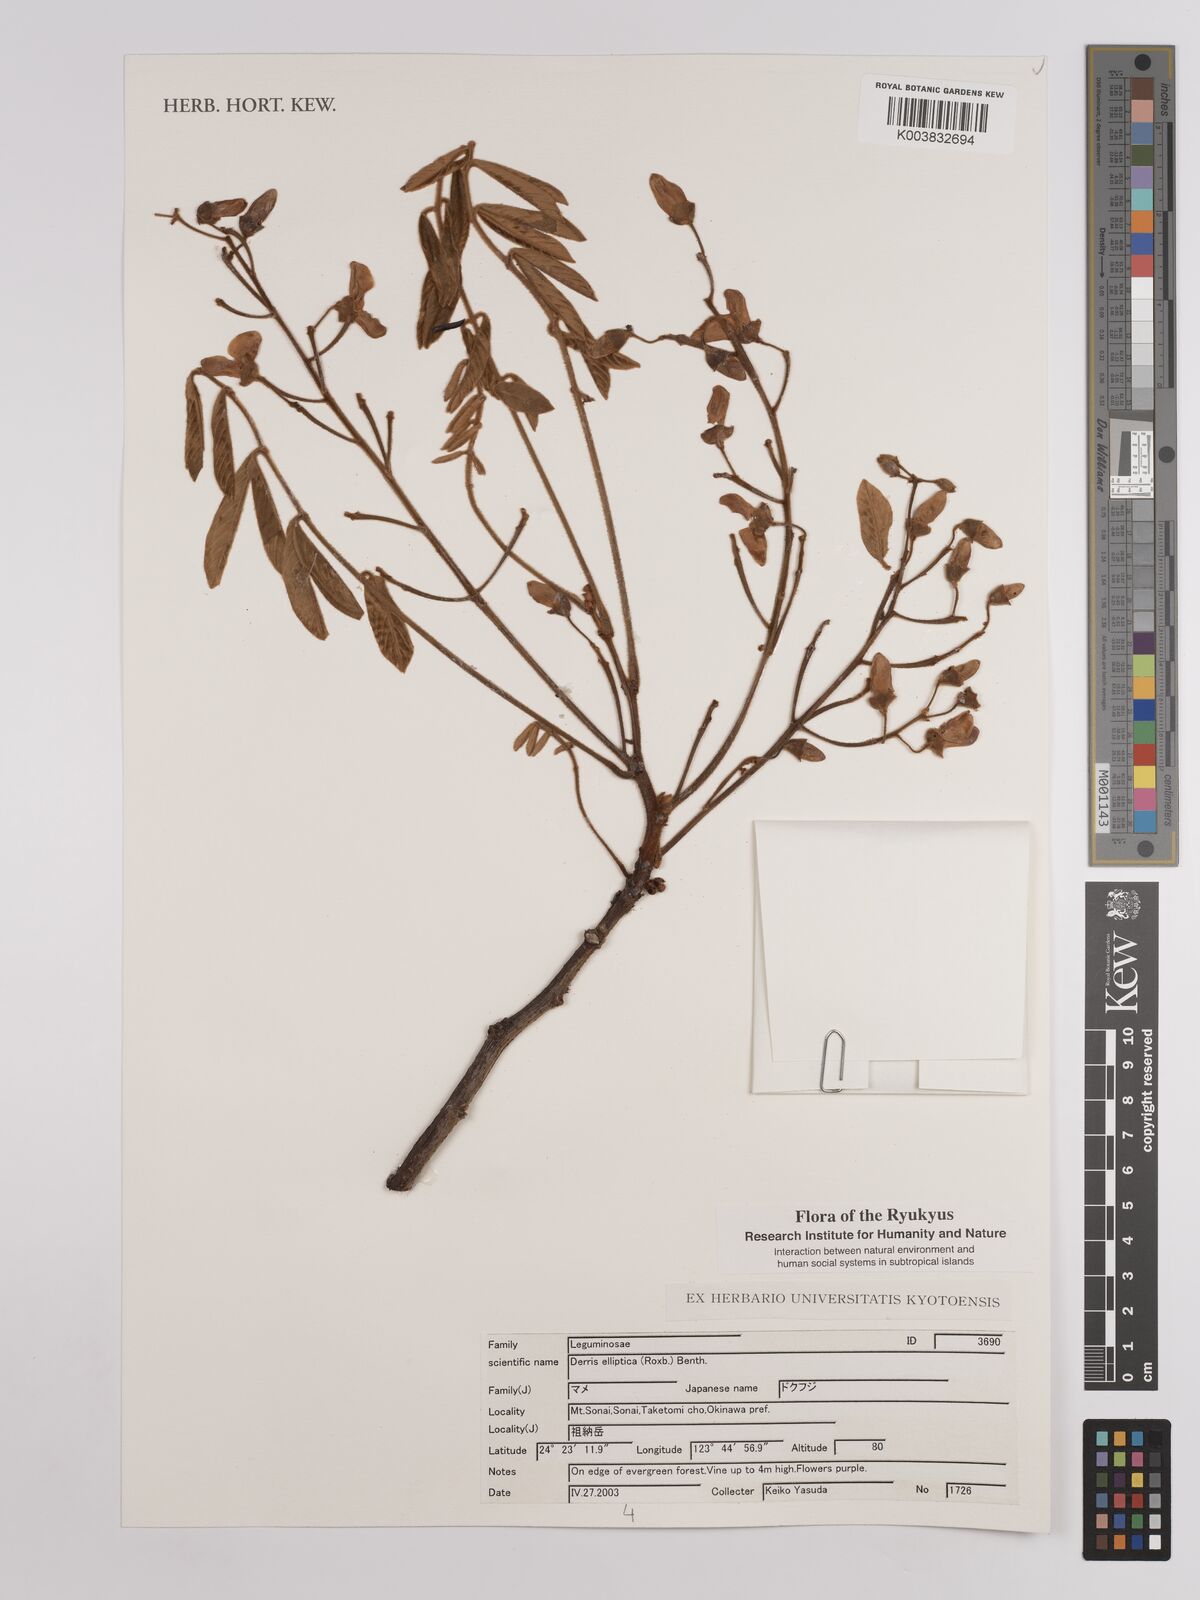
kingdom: Plantae
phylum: Tracheophyta
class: Magnoliopsida
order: Fabales
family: Fabaceae
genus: Derris
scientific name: Derris elliptica
